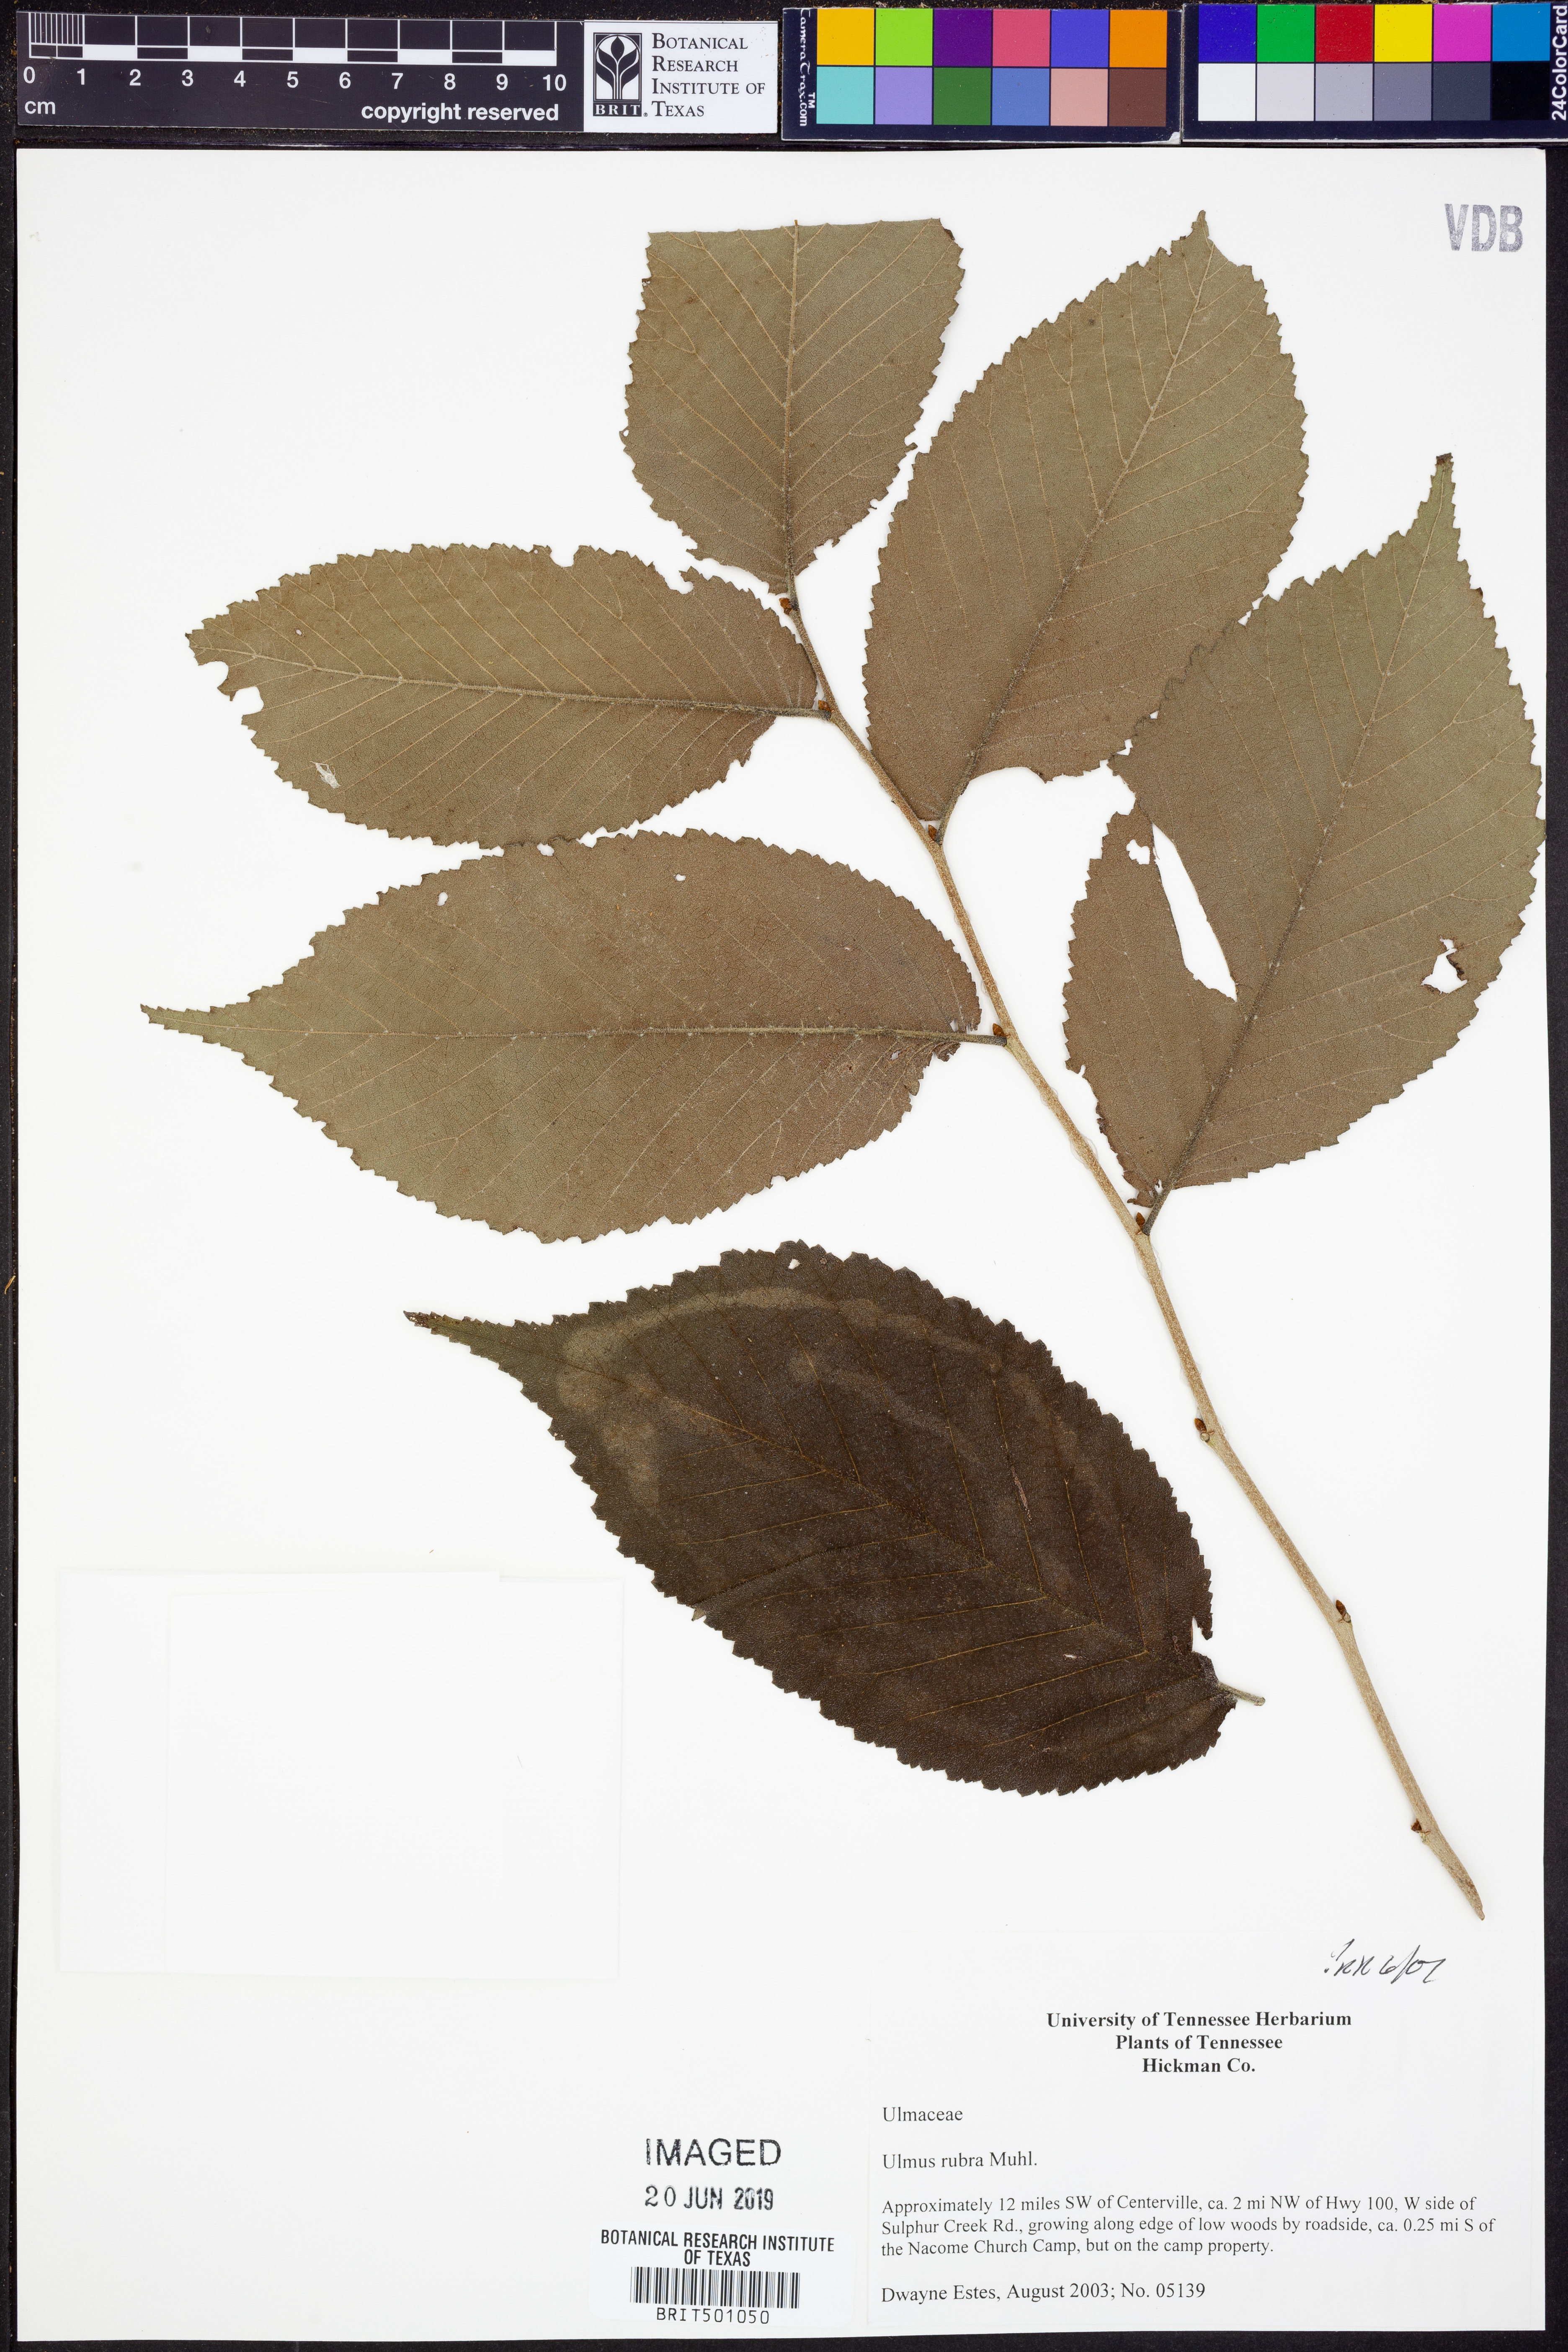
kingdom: Plantae
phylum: Tracheophyta
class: Magnoliopsida
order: Rosales
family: Ulmaceae
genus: Ulmus
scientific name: Ulmus rubra
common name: Slippery elm
